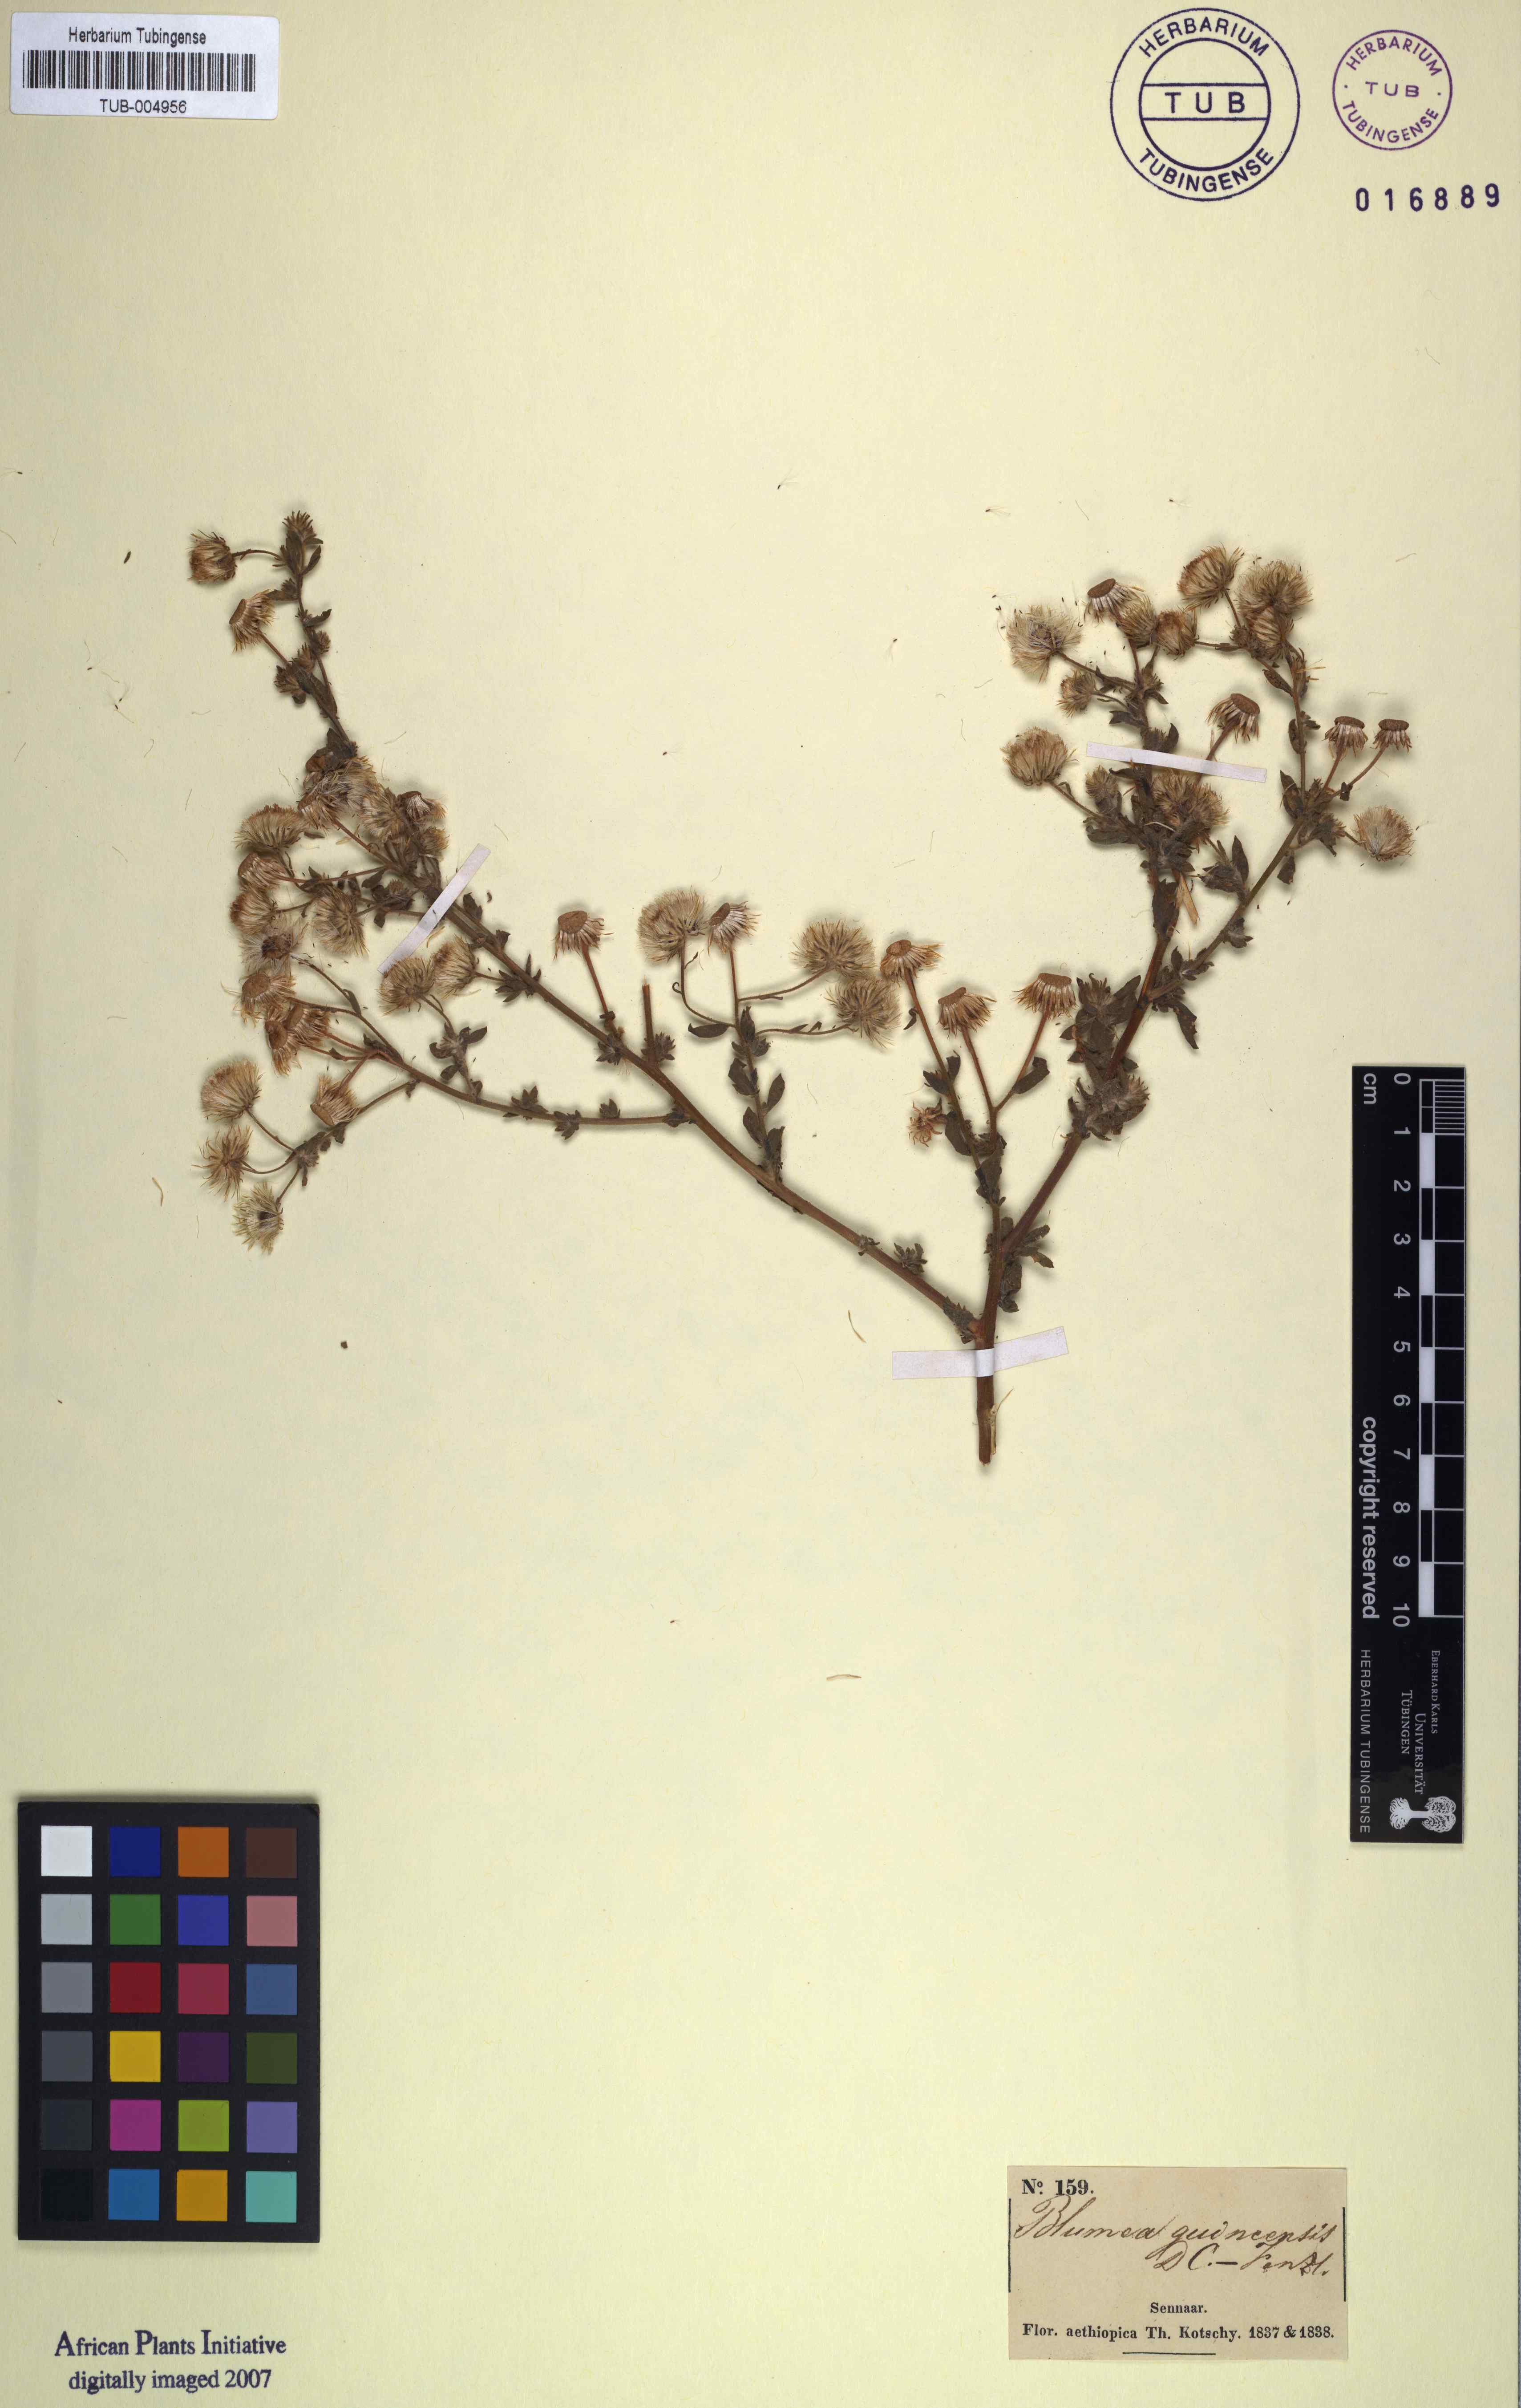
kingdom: Plantae
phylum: Tracheophyta
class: Magnoliopsida
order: Asterales
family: Asteraceae
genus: Pseudoconyza
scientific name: Pseudoconyza viscosa
